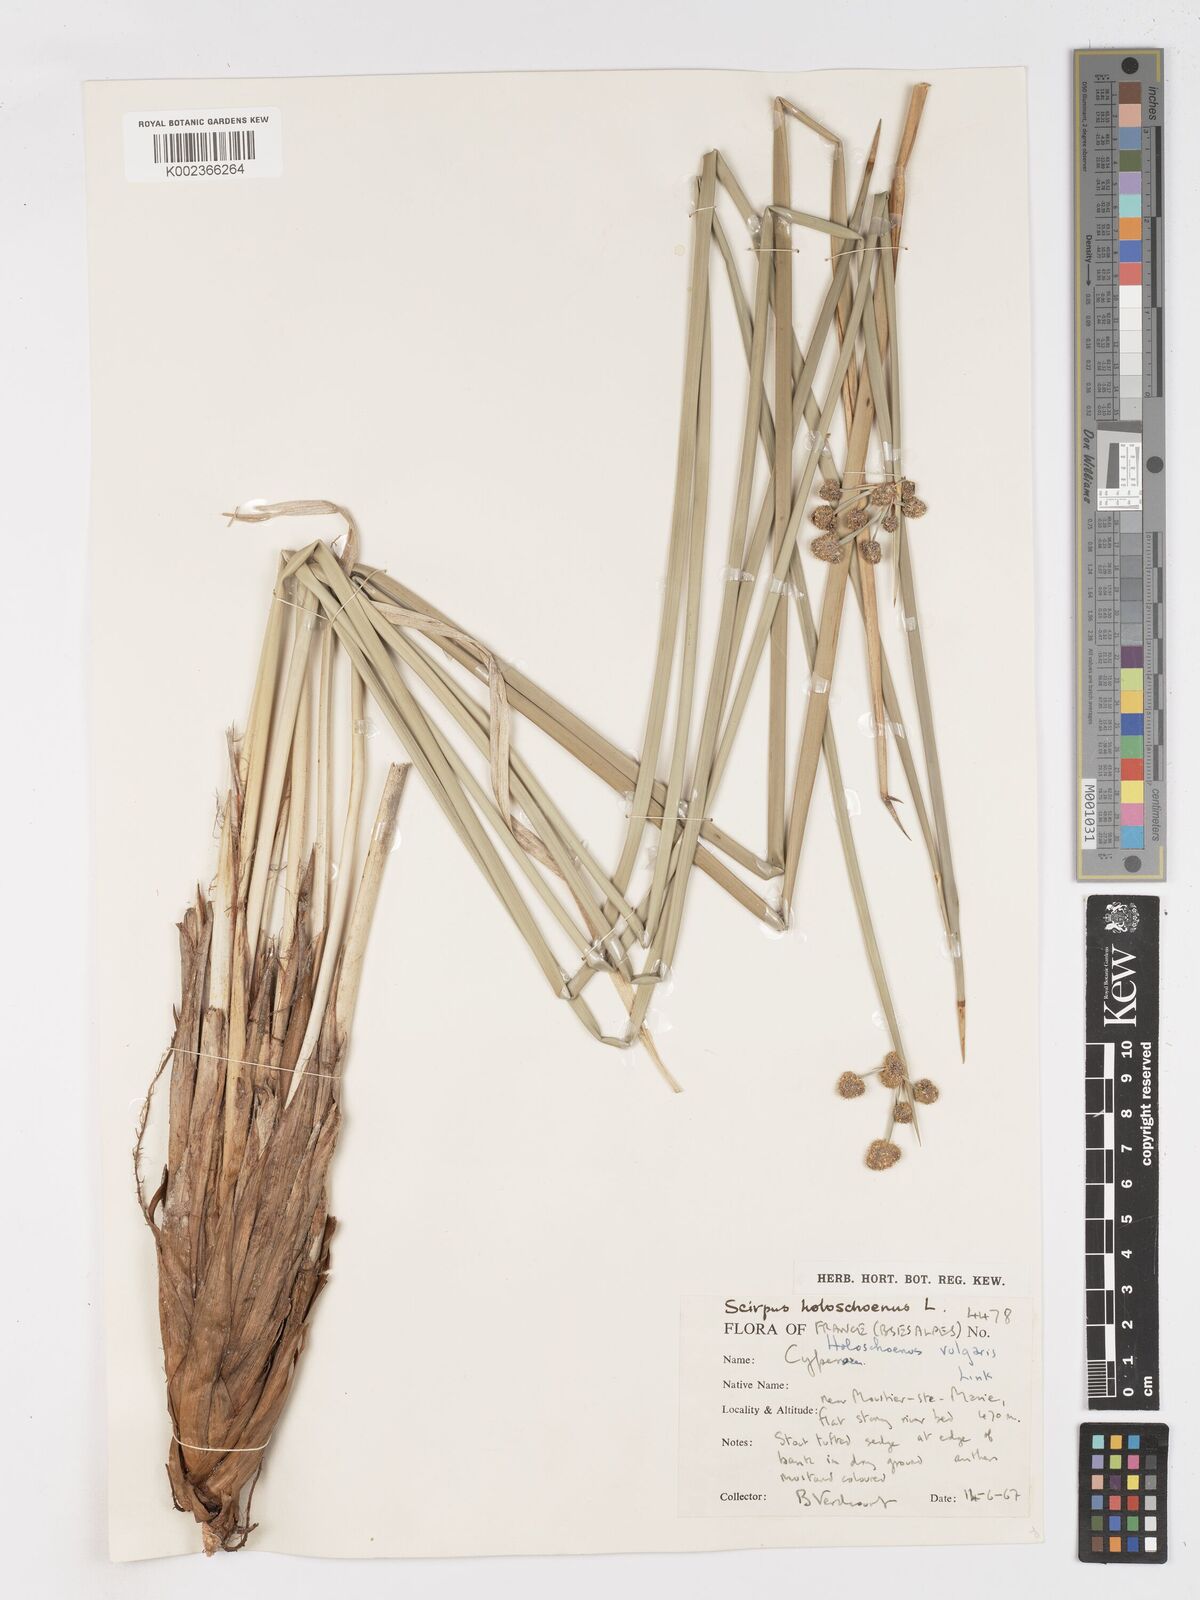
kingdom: Plantae
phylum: Tracheophyta
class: Liliopsida
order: Poales
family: Cyperaceae
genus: Scirpoides
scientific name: Scirpoides holoschoenus
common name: Round-headed club-rush
